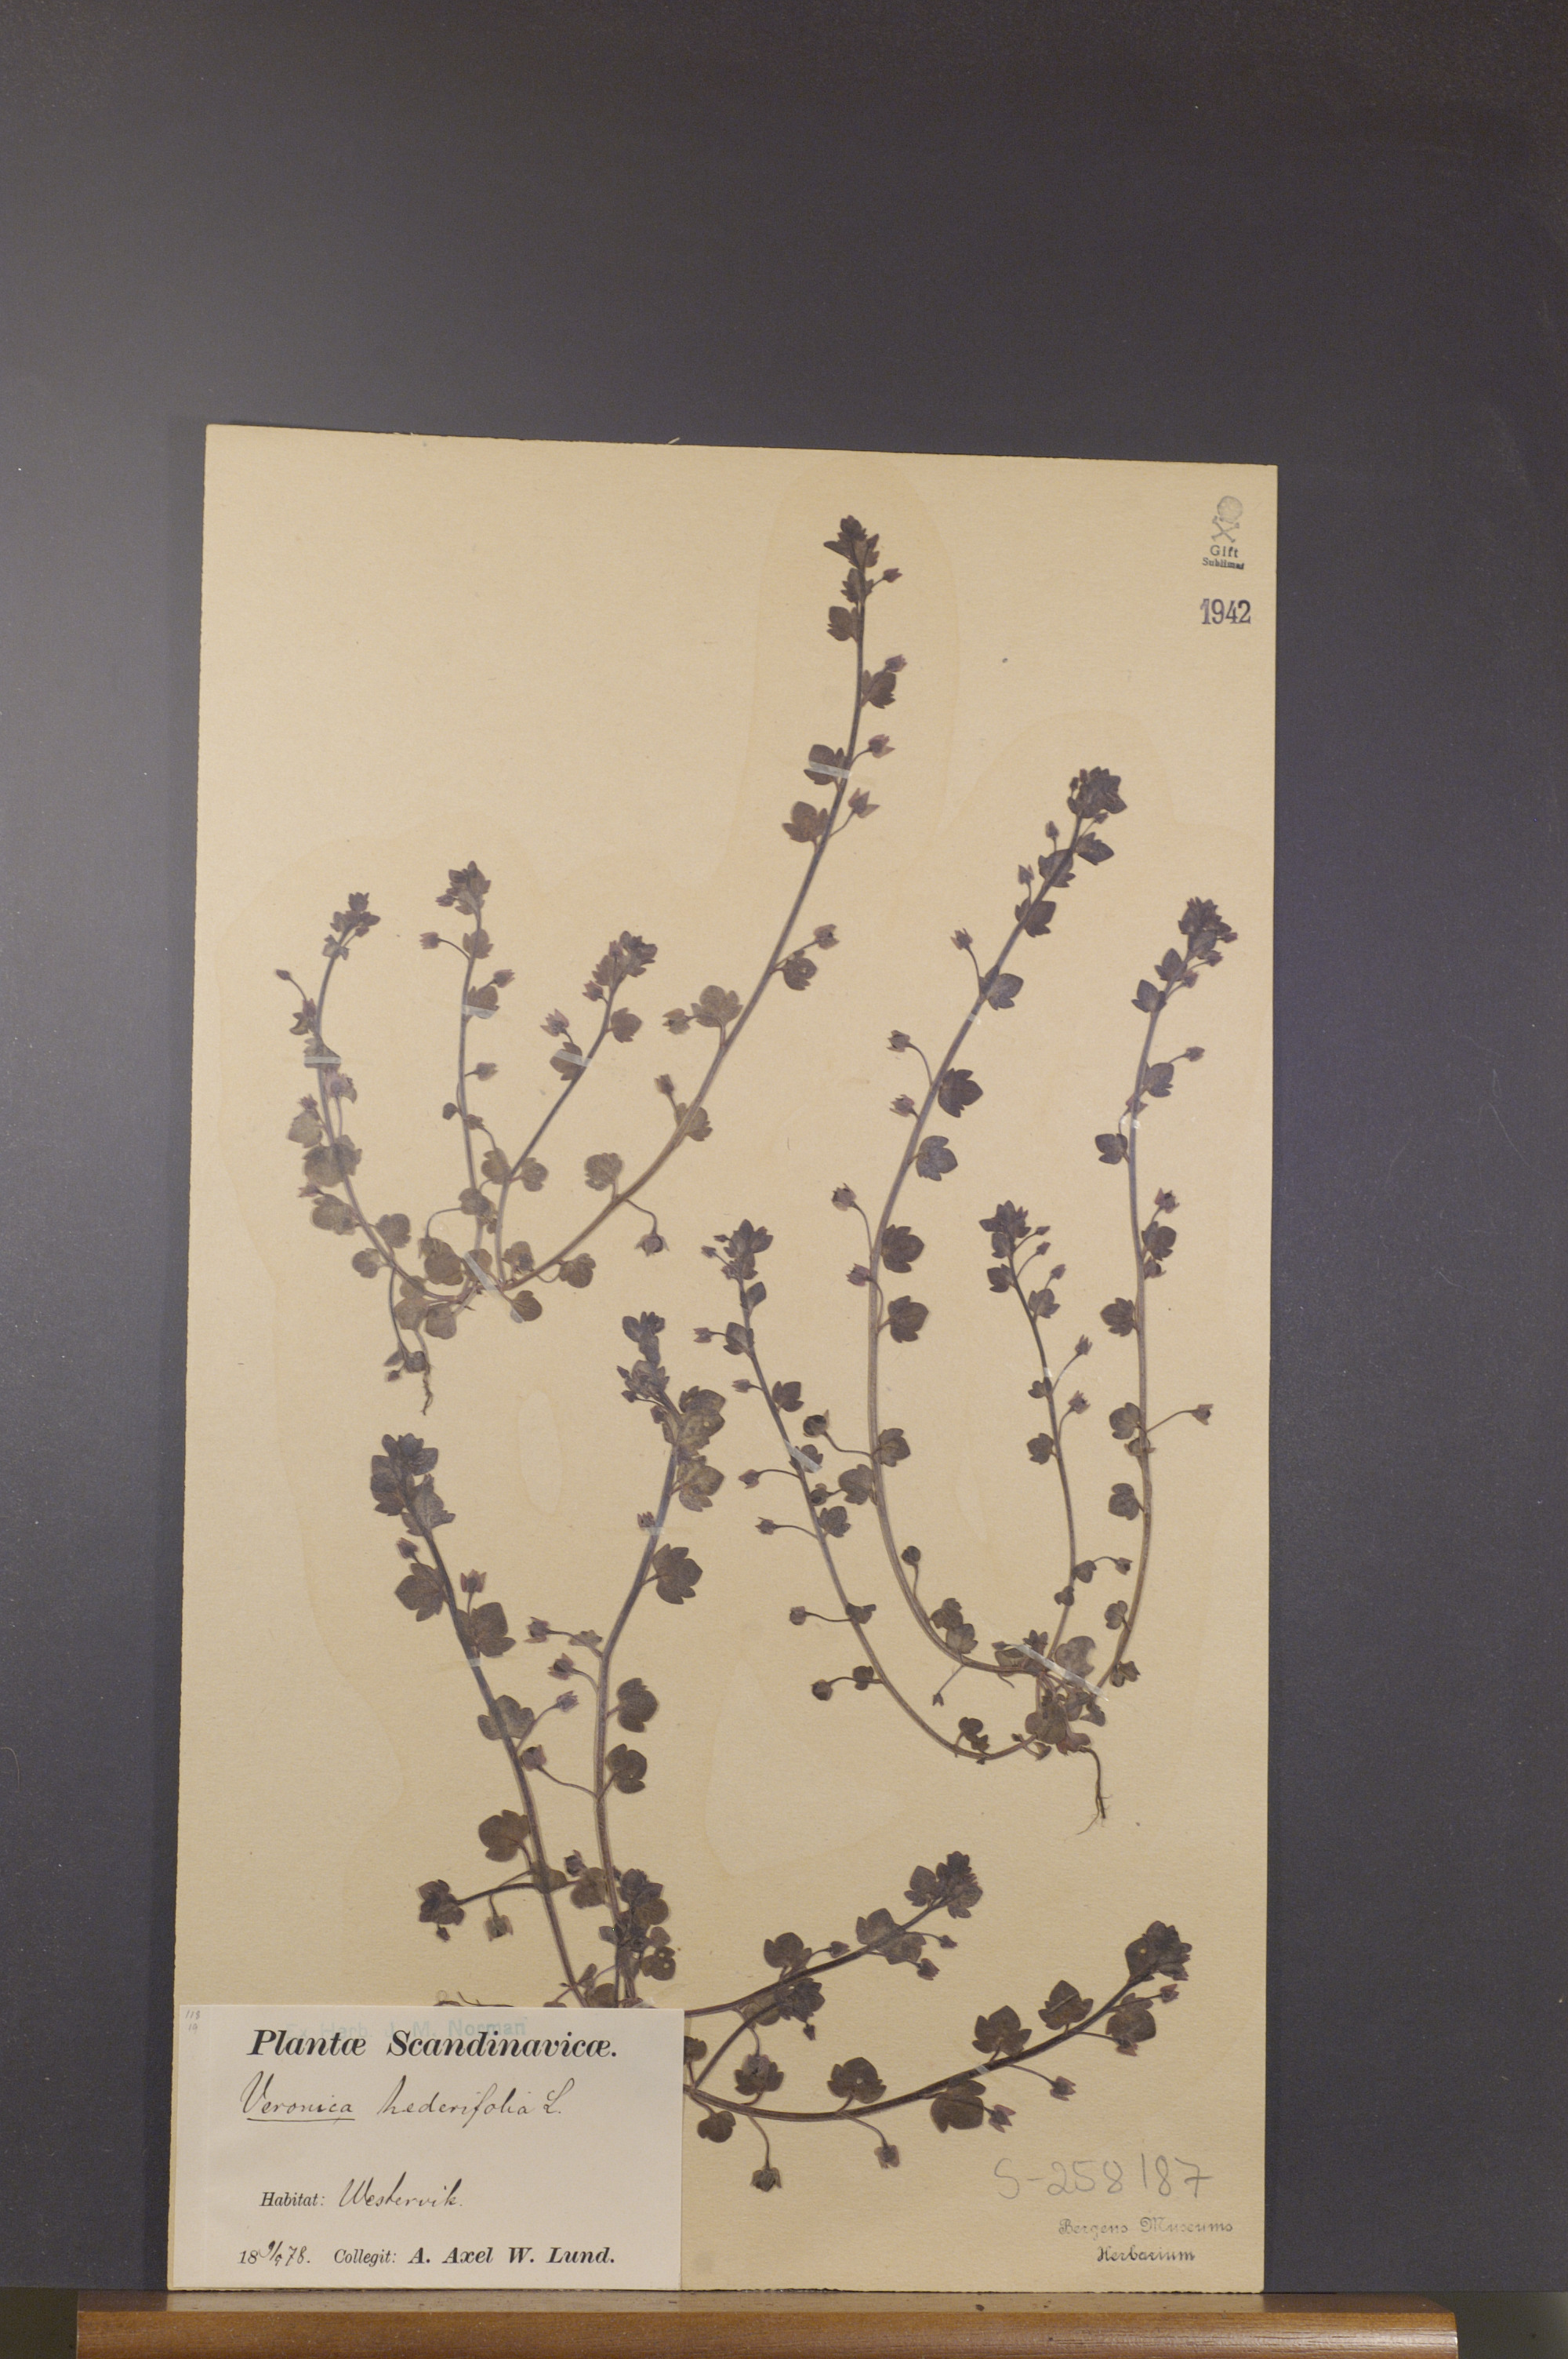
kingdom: Plantae
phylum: Tracheophyta
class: Magnoliopsida
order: Lamiales
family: Plantaginaceae
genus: Veronica
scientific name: Veronica hederifolia
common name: Ivy-leaved speedwell
